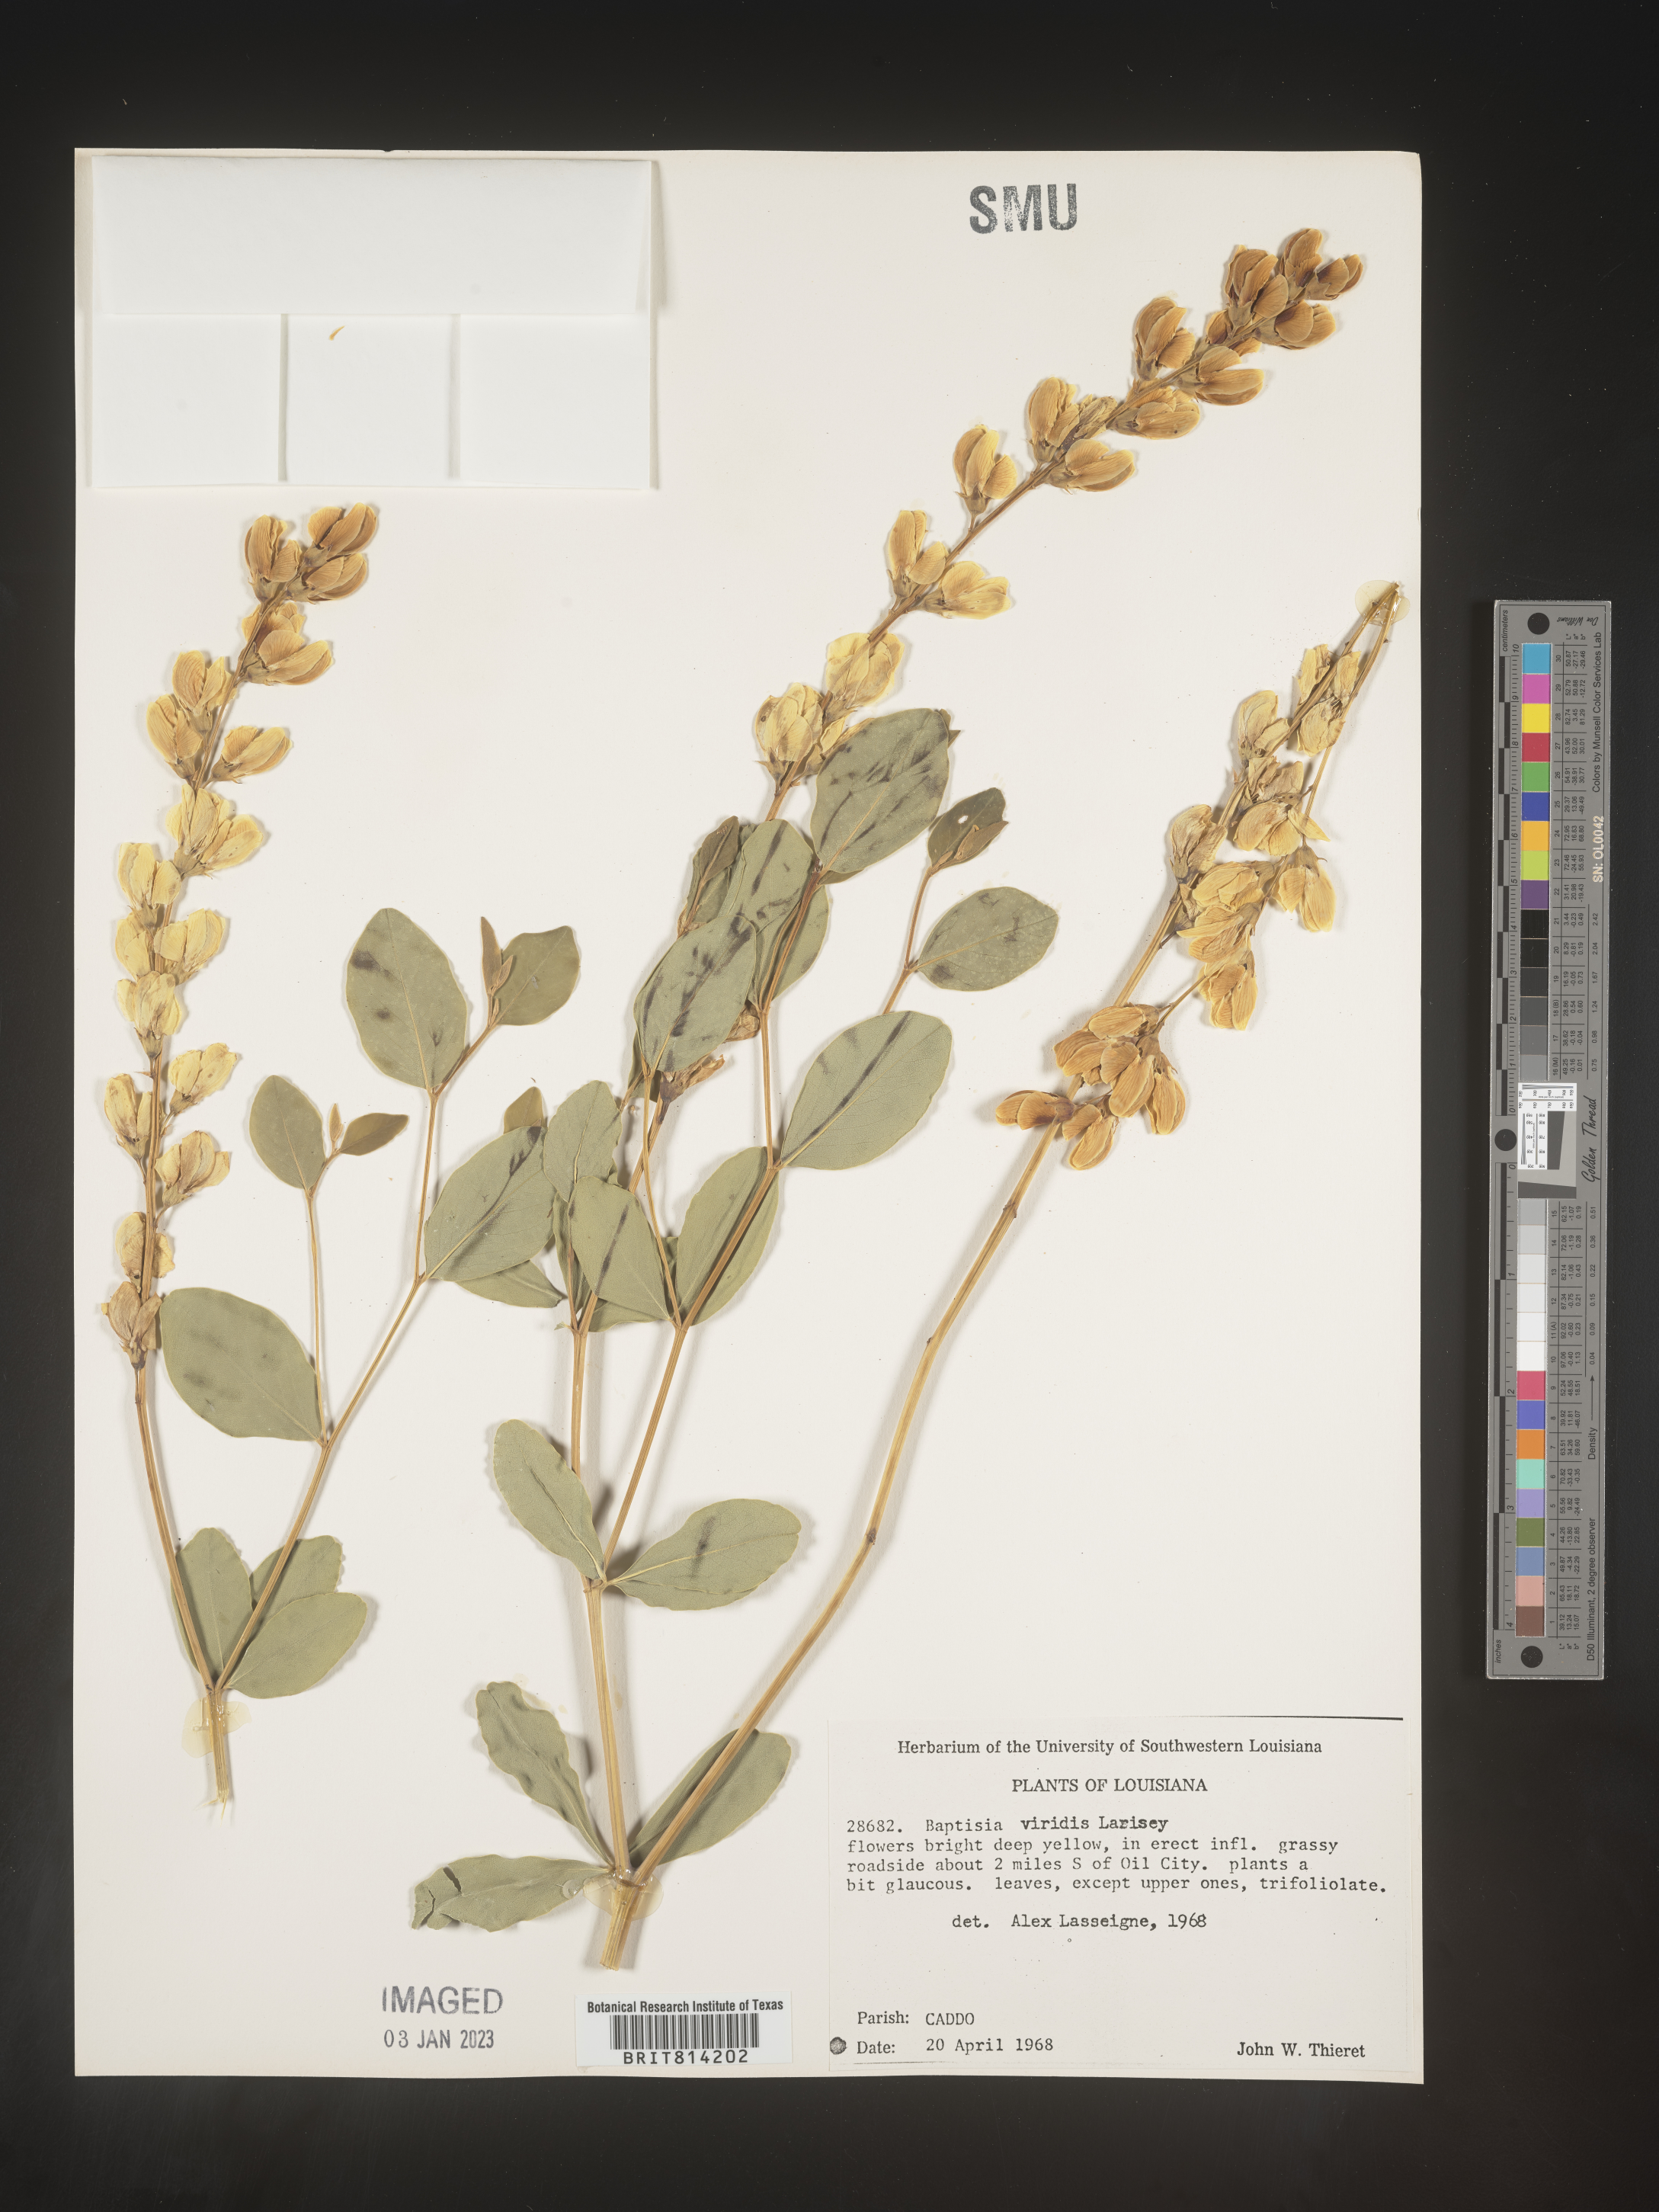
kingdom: Plantae
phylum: Tracheophyta
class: Magnoliopsida
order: Fabales
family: Fabaceae
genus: Baptisia
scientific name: Baptisia sphaerocarpa
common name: Round wild indigo
